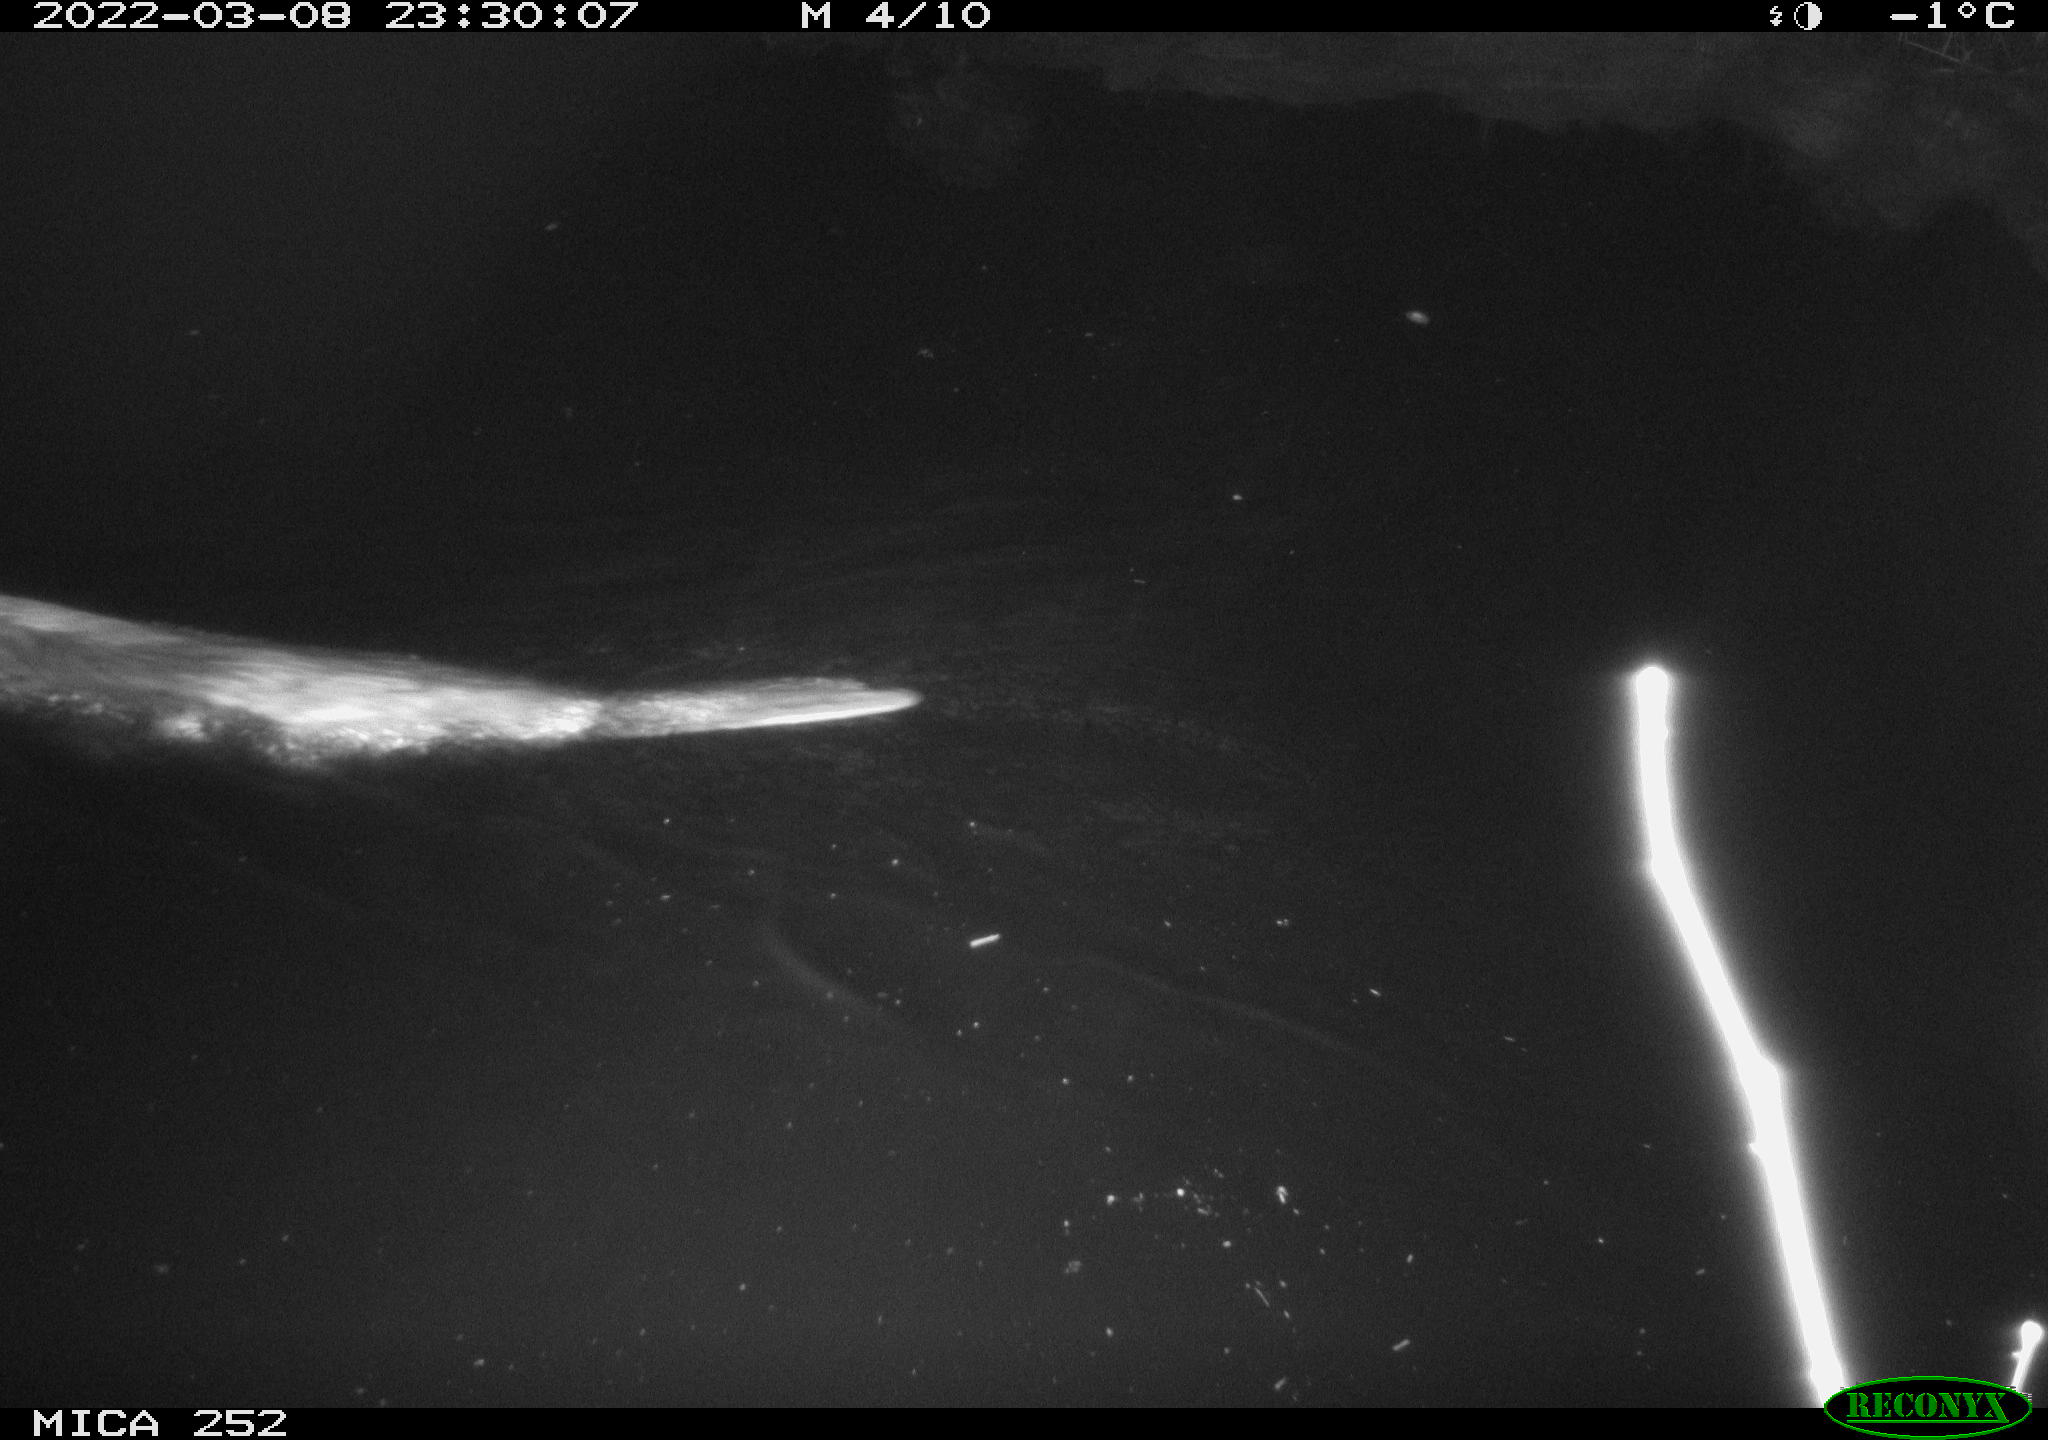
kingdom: Animalia
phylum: Chordata
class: Mammalia
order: Rodentia
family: Castoridae
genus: Castor
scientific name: Castor fiber
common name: Eurasian beaver
